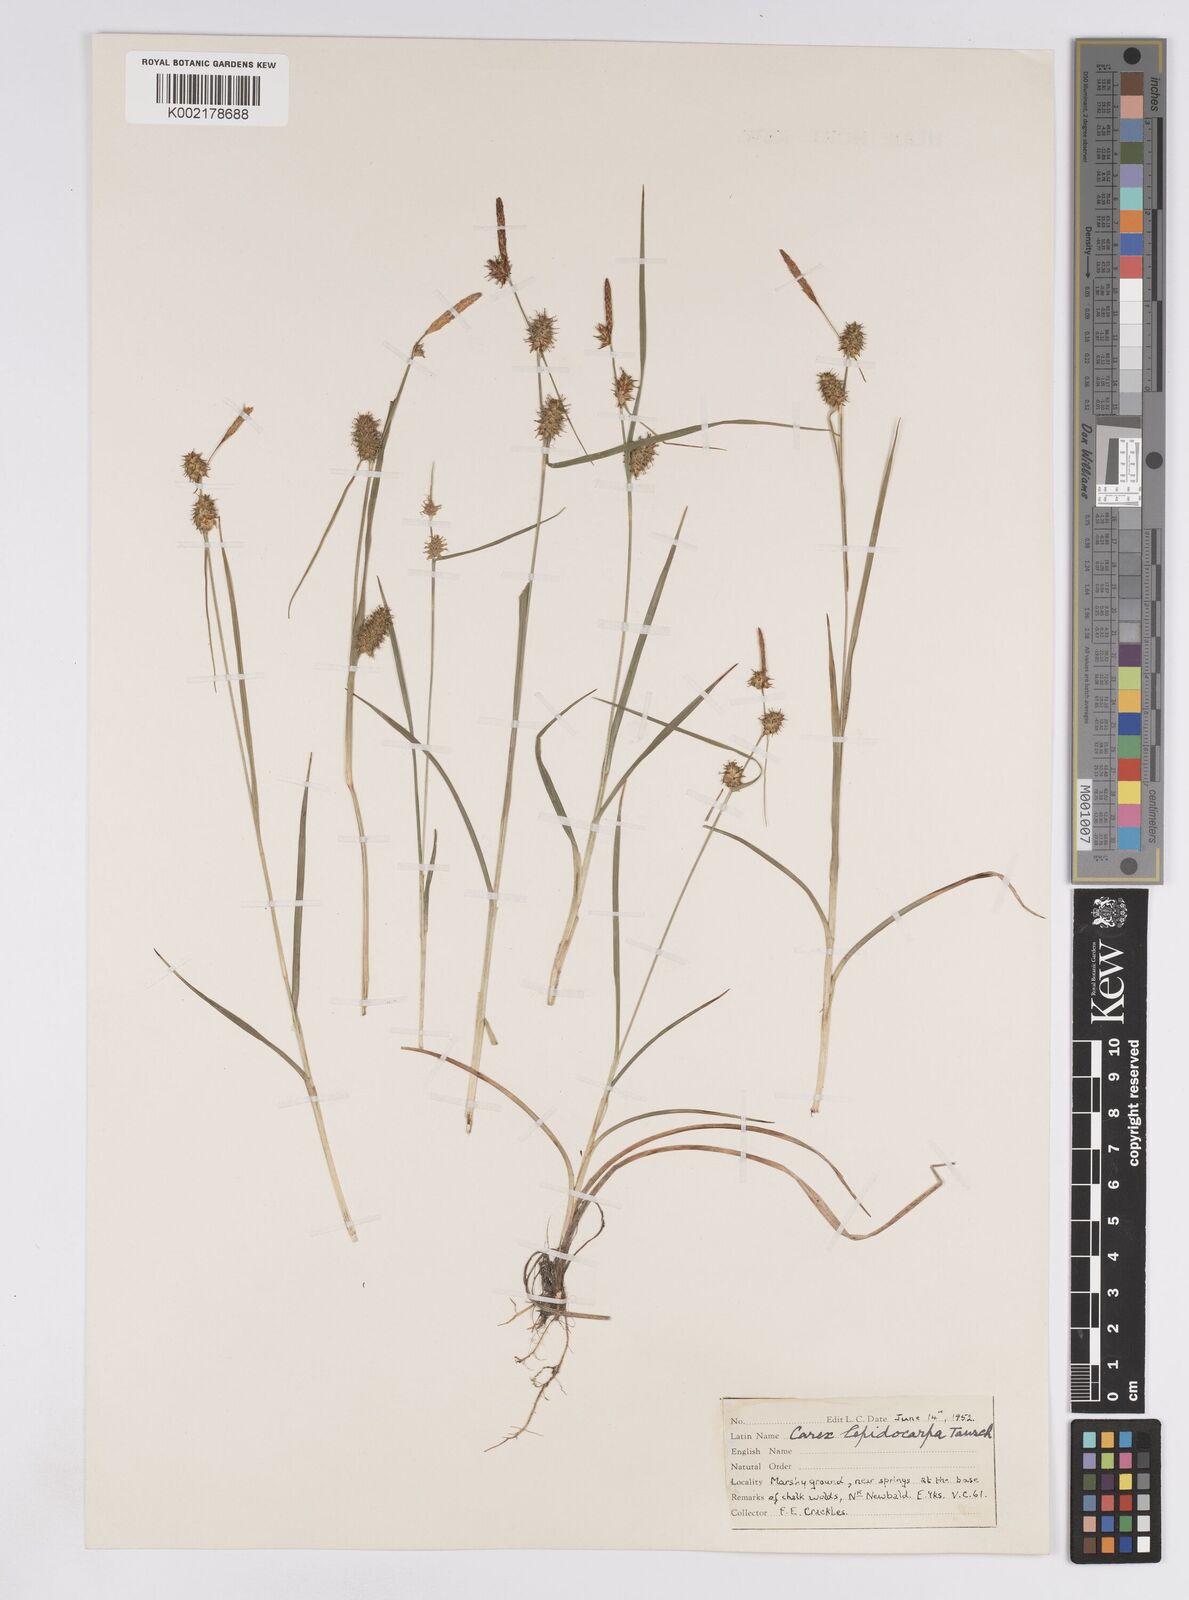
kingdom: Plantae
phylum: Tracheophyta
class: Liliopsida
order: Poales
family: Cyperaceae
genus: Carex
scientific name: Carex lepidocarpa
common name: Long-stalked yellow-sedge
